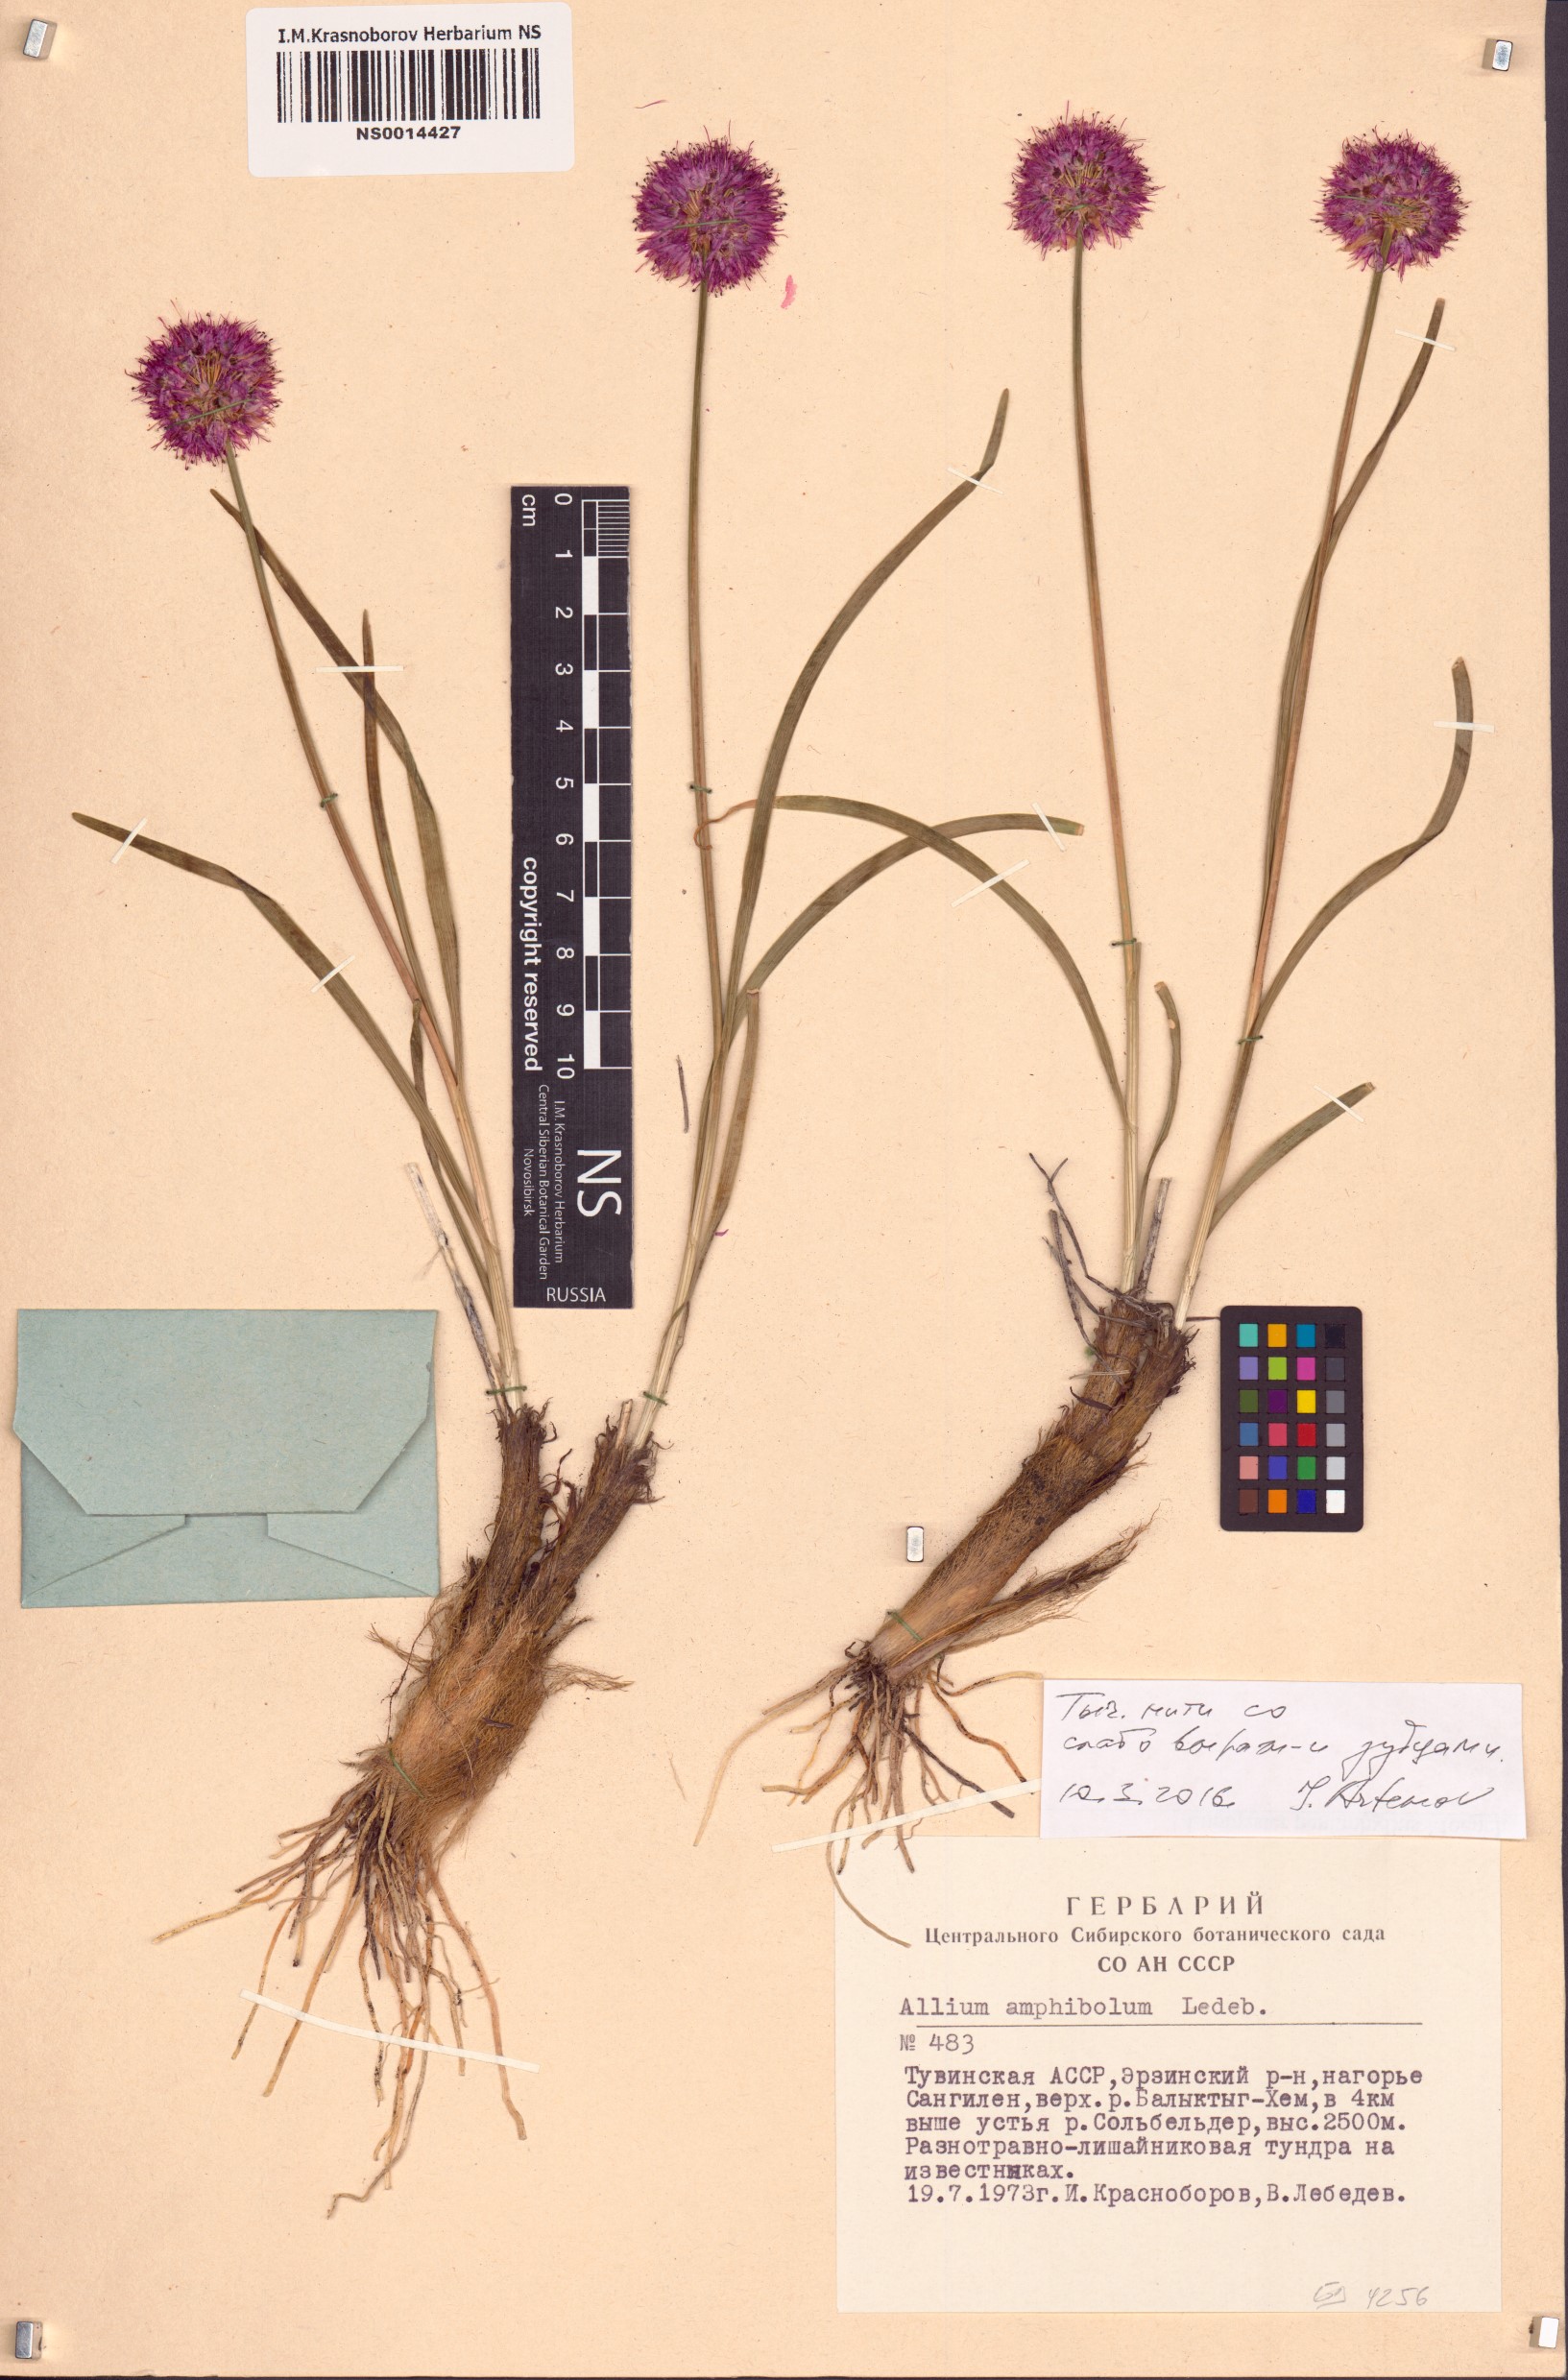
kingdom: Plantae
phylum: Tracheophyta
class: Liliopsida
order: Asparagales
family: Amaryllidaceae
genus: Allium
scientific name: Allium amphibolum
